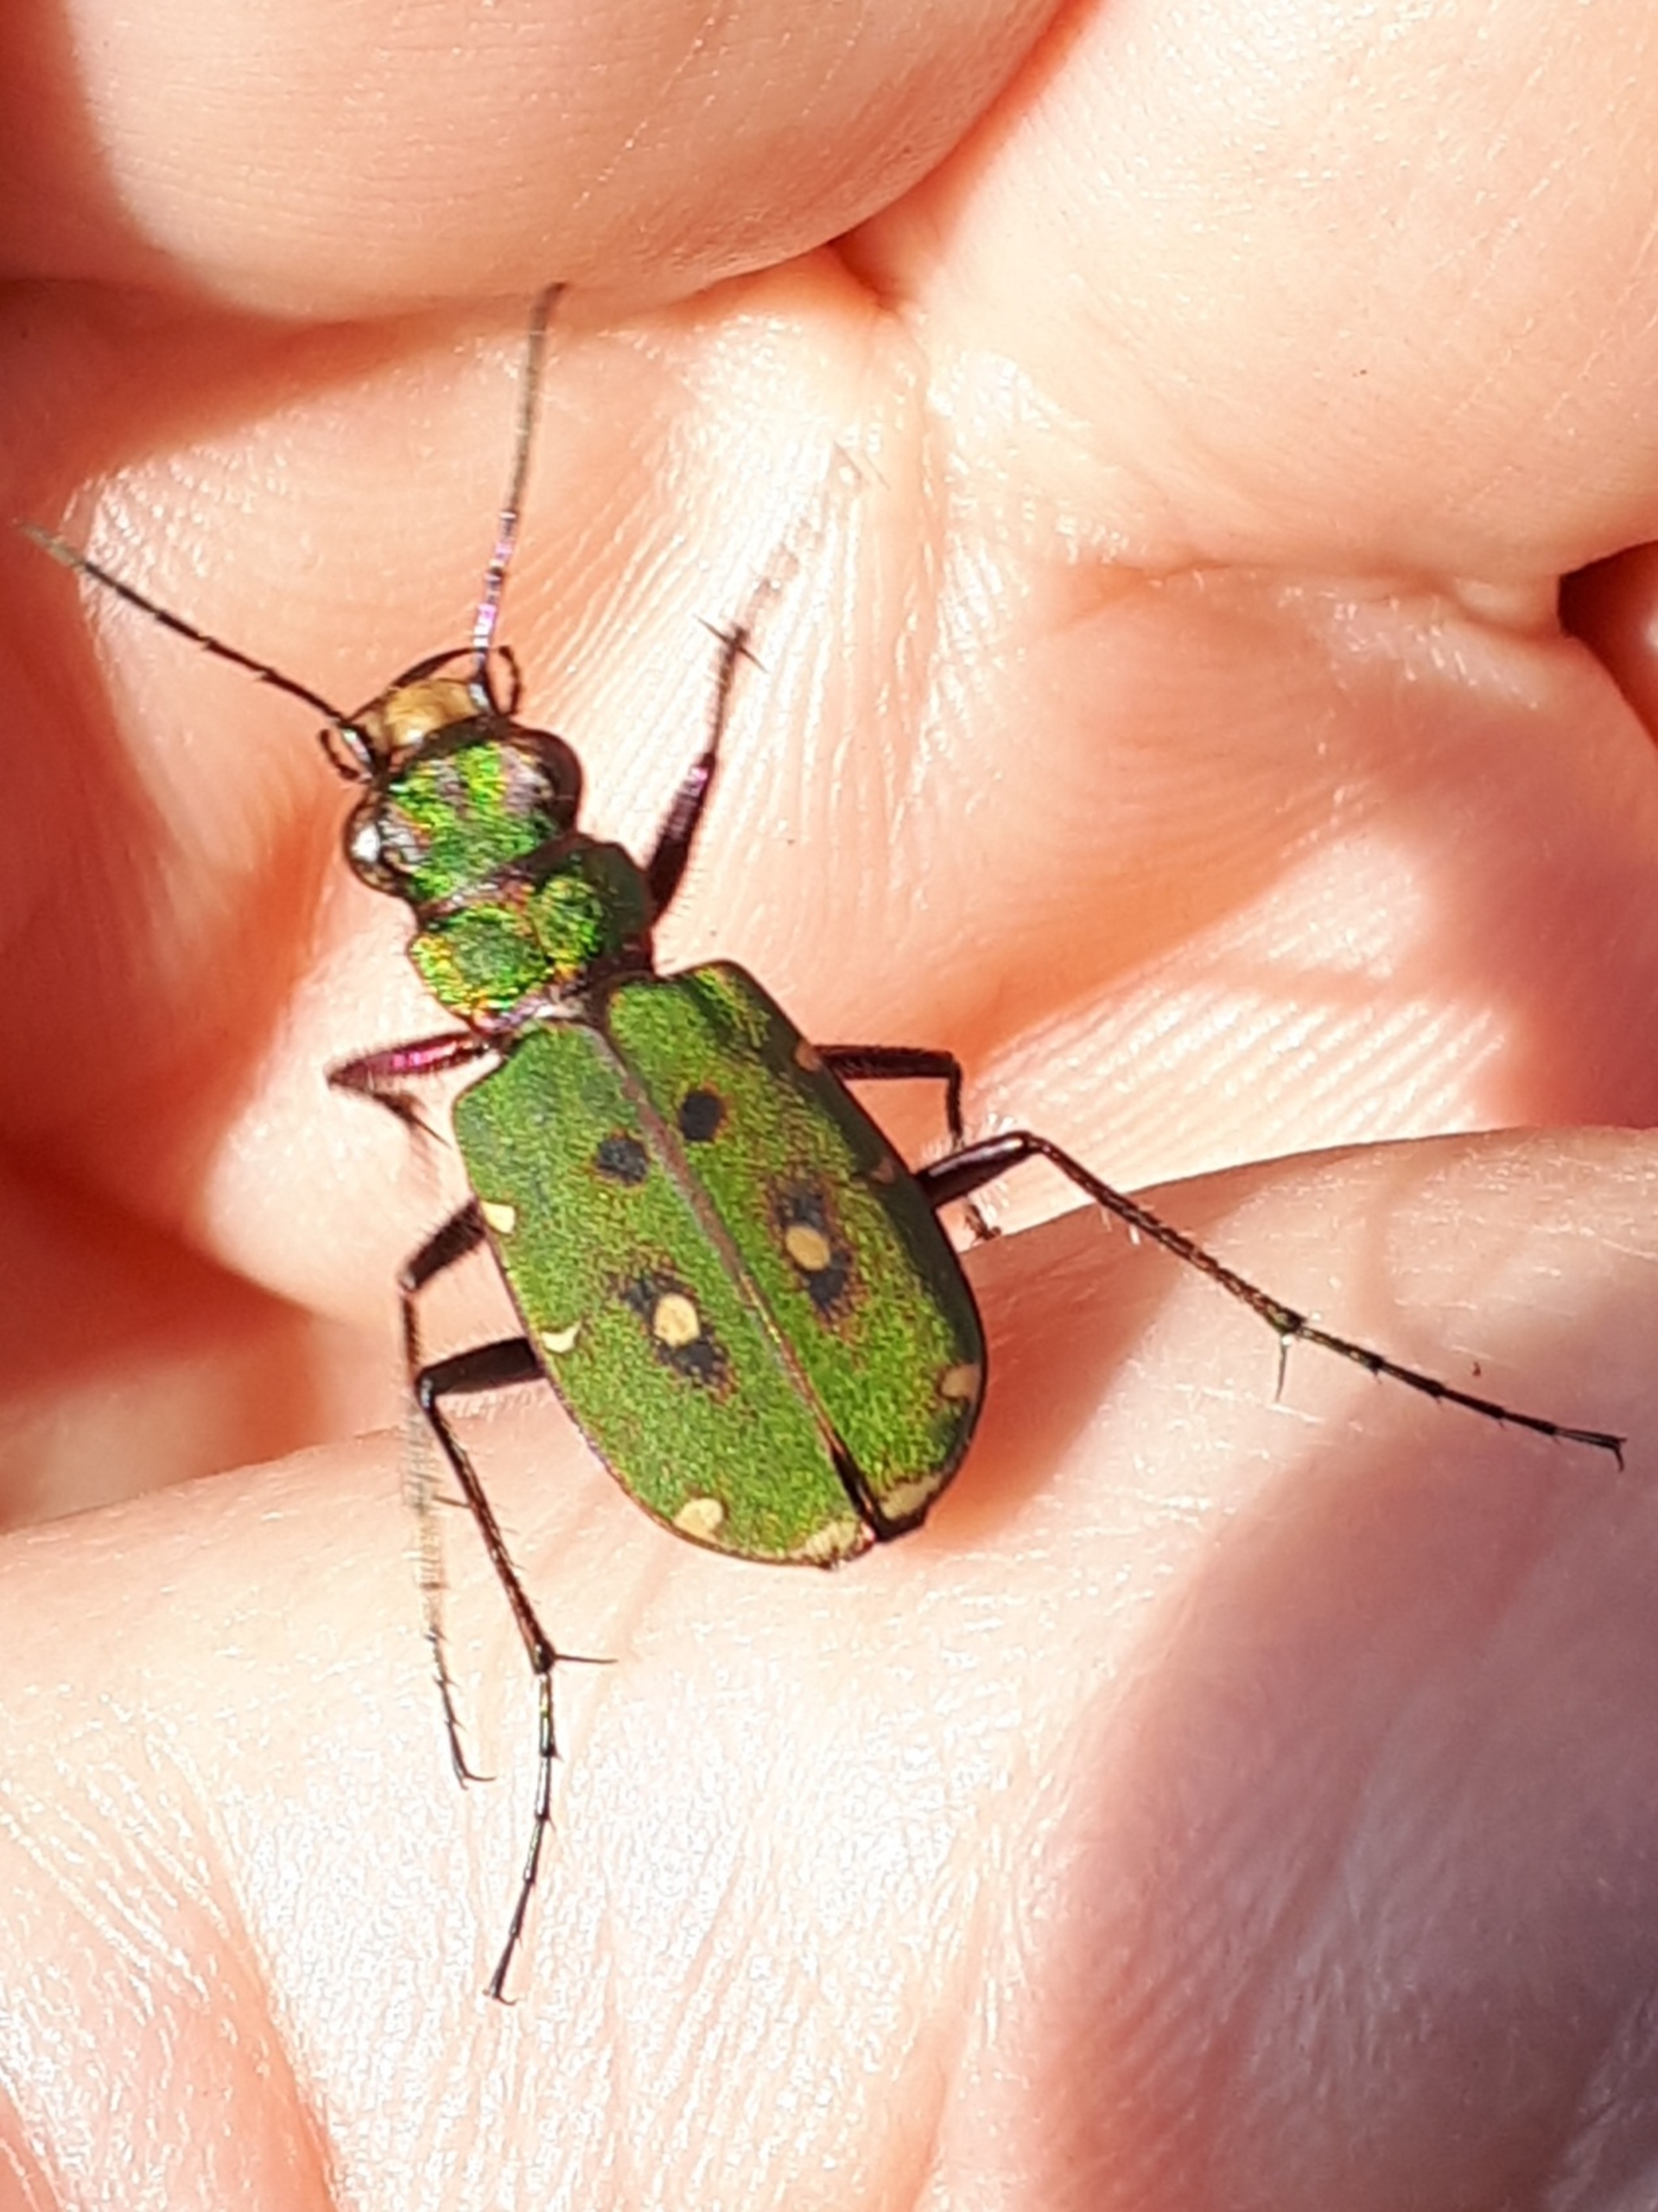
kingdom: Animalia
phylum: Arthropoda
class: Insecta
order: Coleoptera
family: Carabidae
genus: Cicindela
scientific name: Cicindela campestris
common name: Grøn sandspringer
